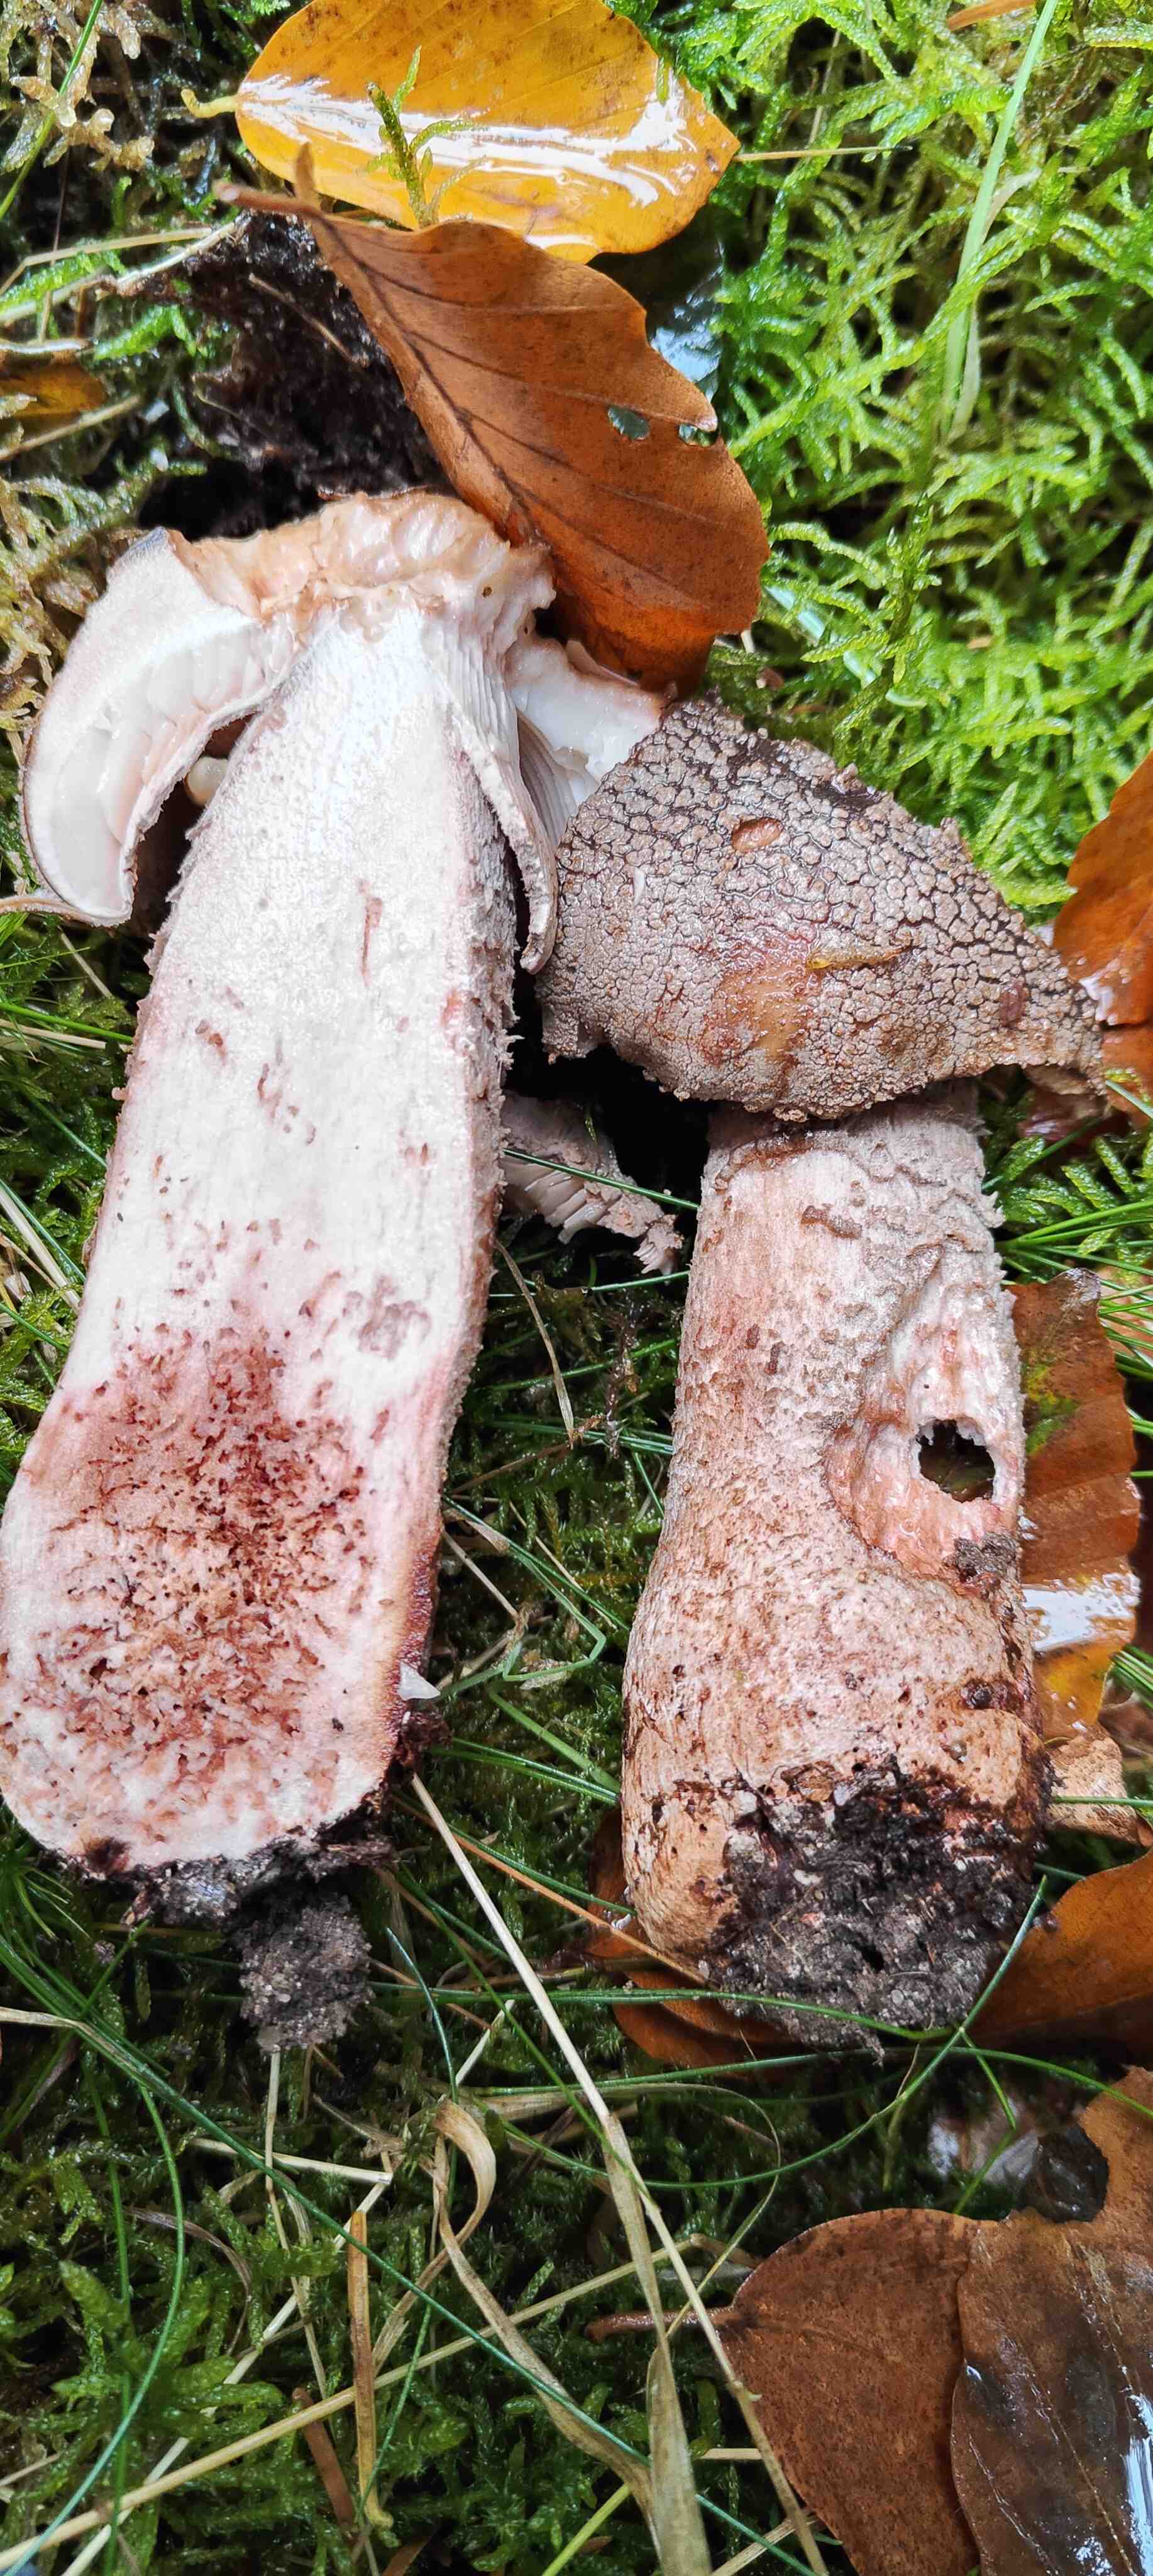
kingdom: Fungi
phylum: Basidiomycota
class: Agaricomycetes
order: Agaricales
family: Amanitaceae
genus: Amanita
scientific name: Amanita rubescens
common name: rødmende fluesvamp
